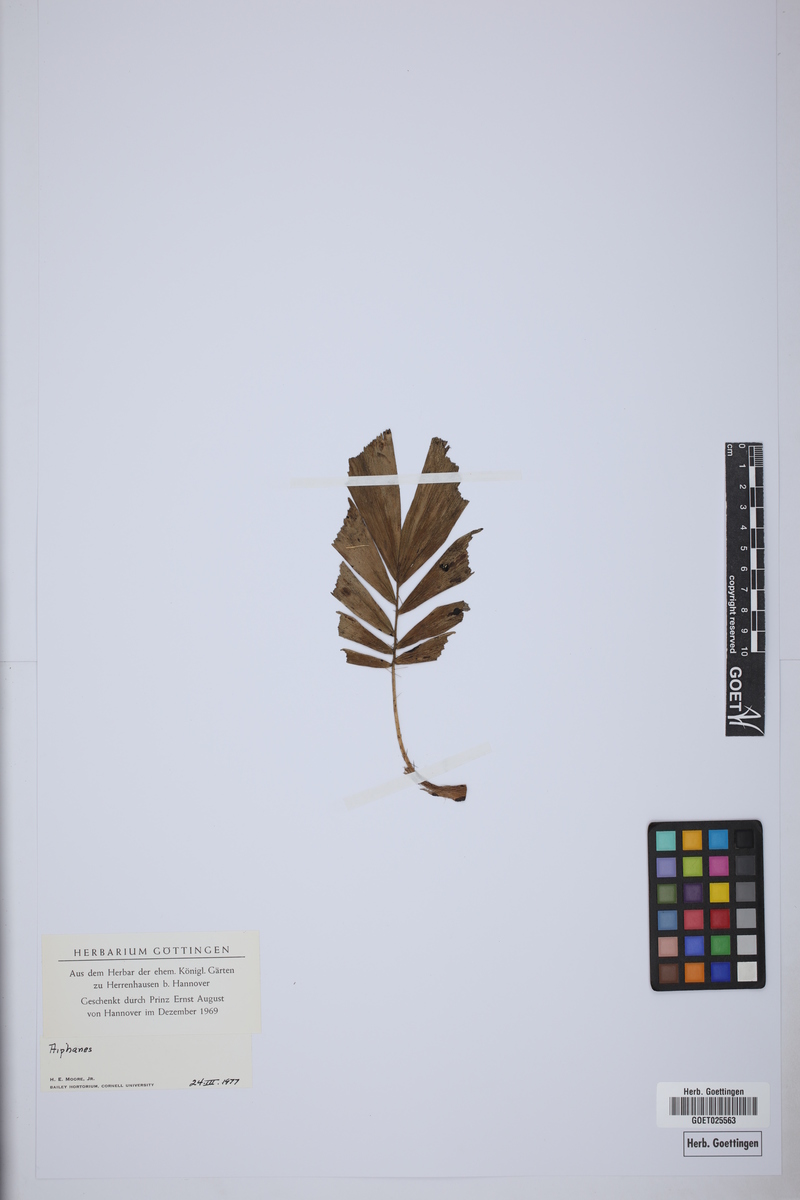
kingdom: Plantae
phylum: Tracheophyta
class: Liliopsida
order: Arecales
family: Arecaceae
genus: Aiphanes
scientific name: Aiphanes
